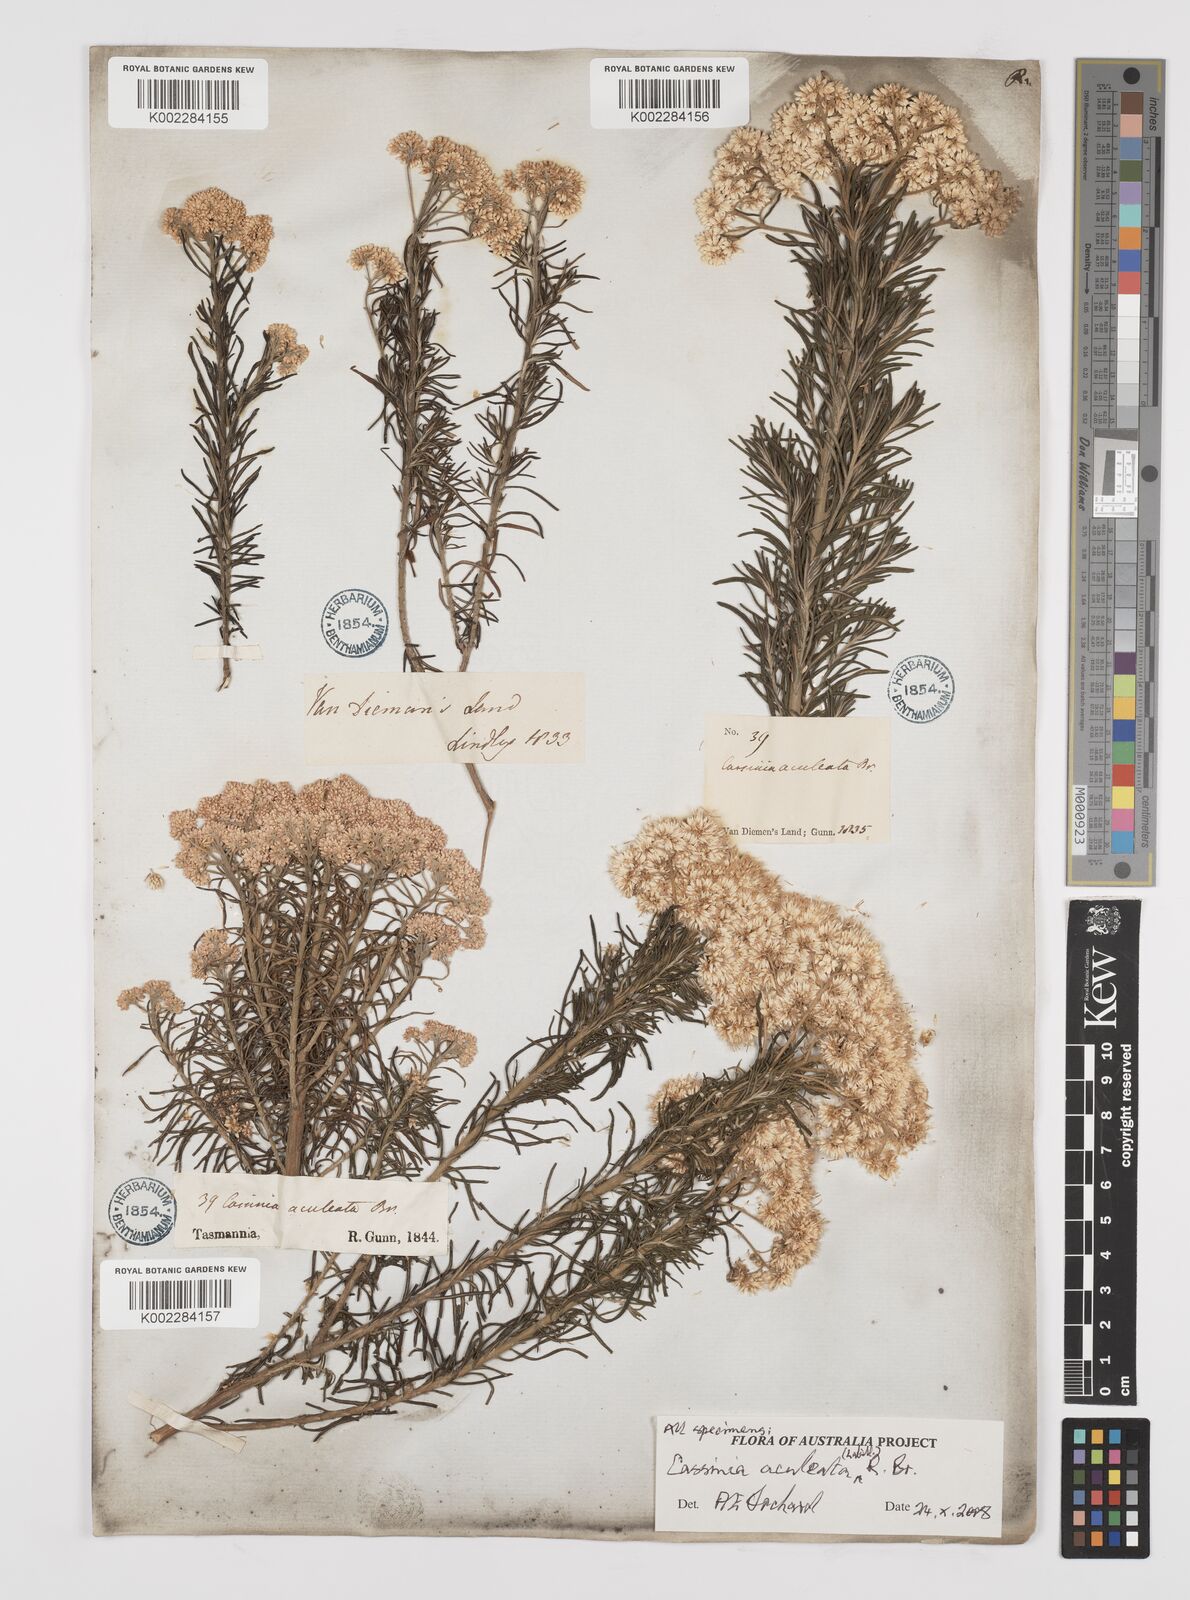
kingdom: Plantae
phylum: Tracheophyta
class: Magnoliopsida
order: Asterales
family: Asteraceae
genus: Cassinia
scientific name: Cassinia aculeata
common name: Australian tauhinu
